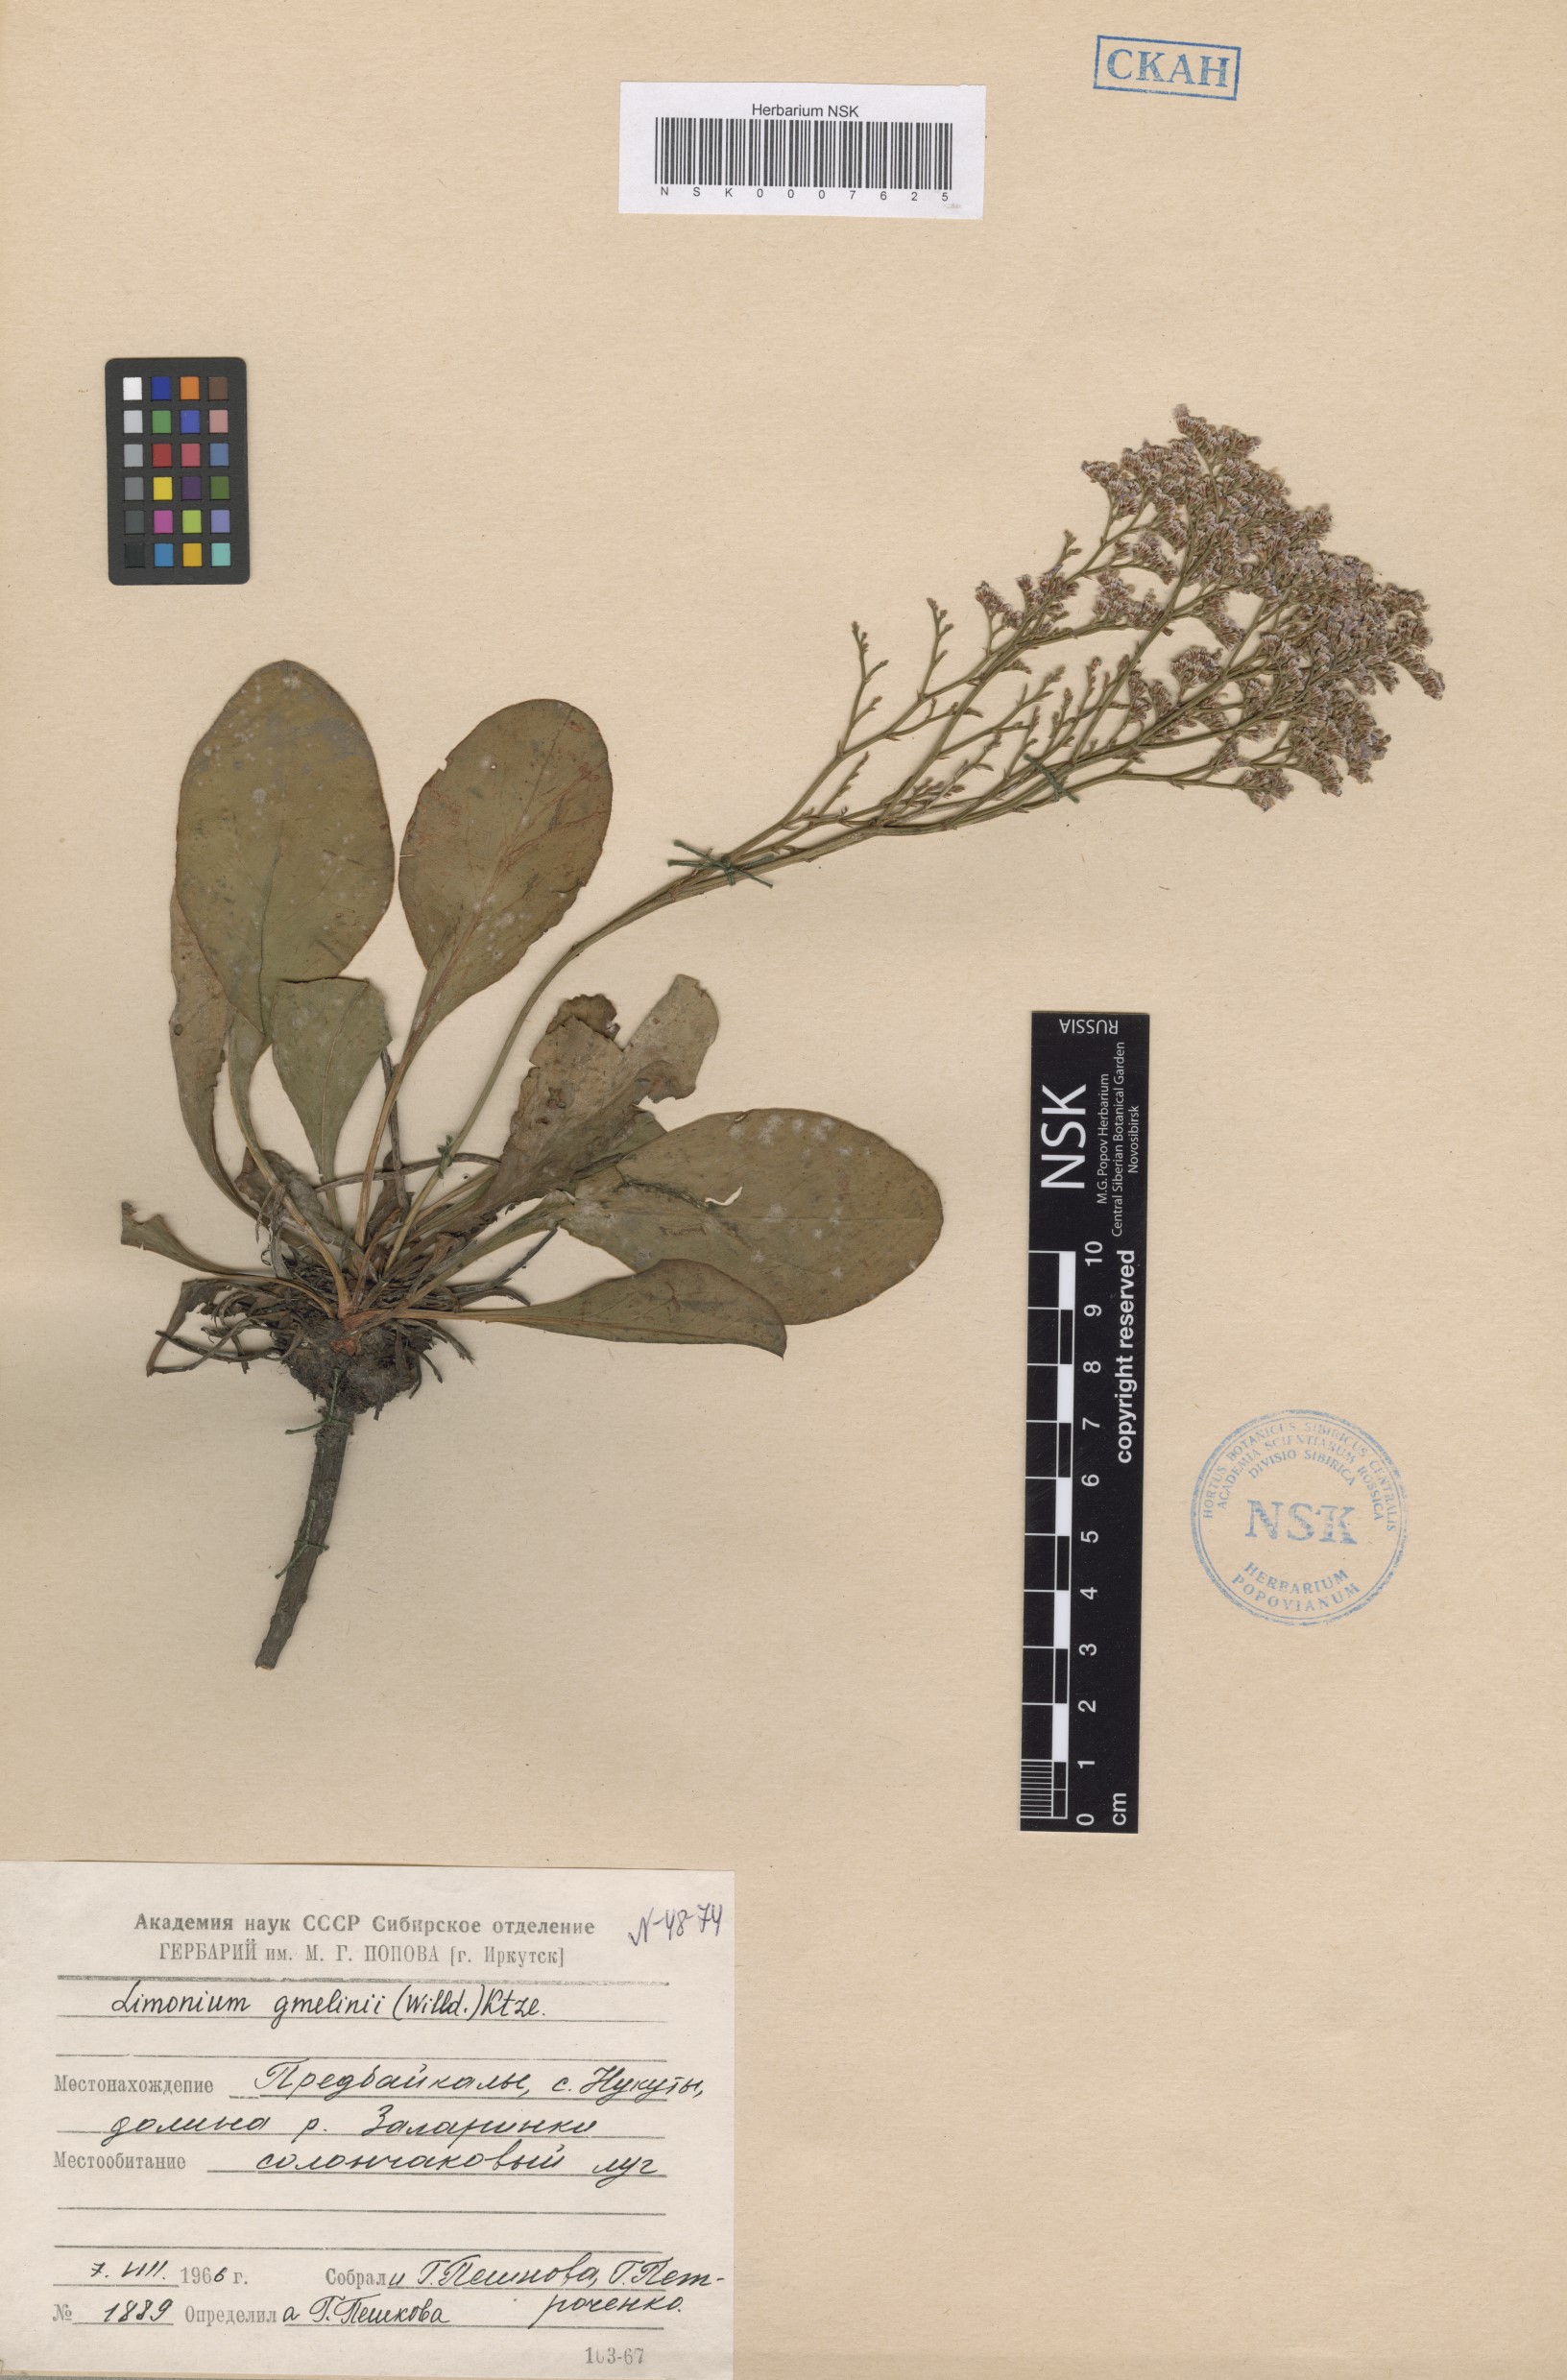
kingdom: Plantae
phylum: Tracheophyta
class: Magnoliopsida
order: Caryophyllales
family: Plumbaginaceae
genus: Limonium
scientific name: Limonium gmelini
